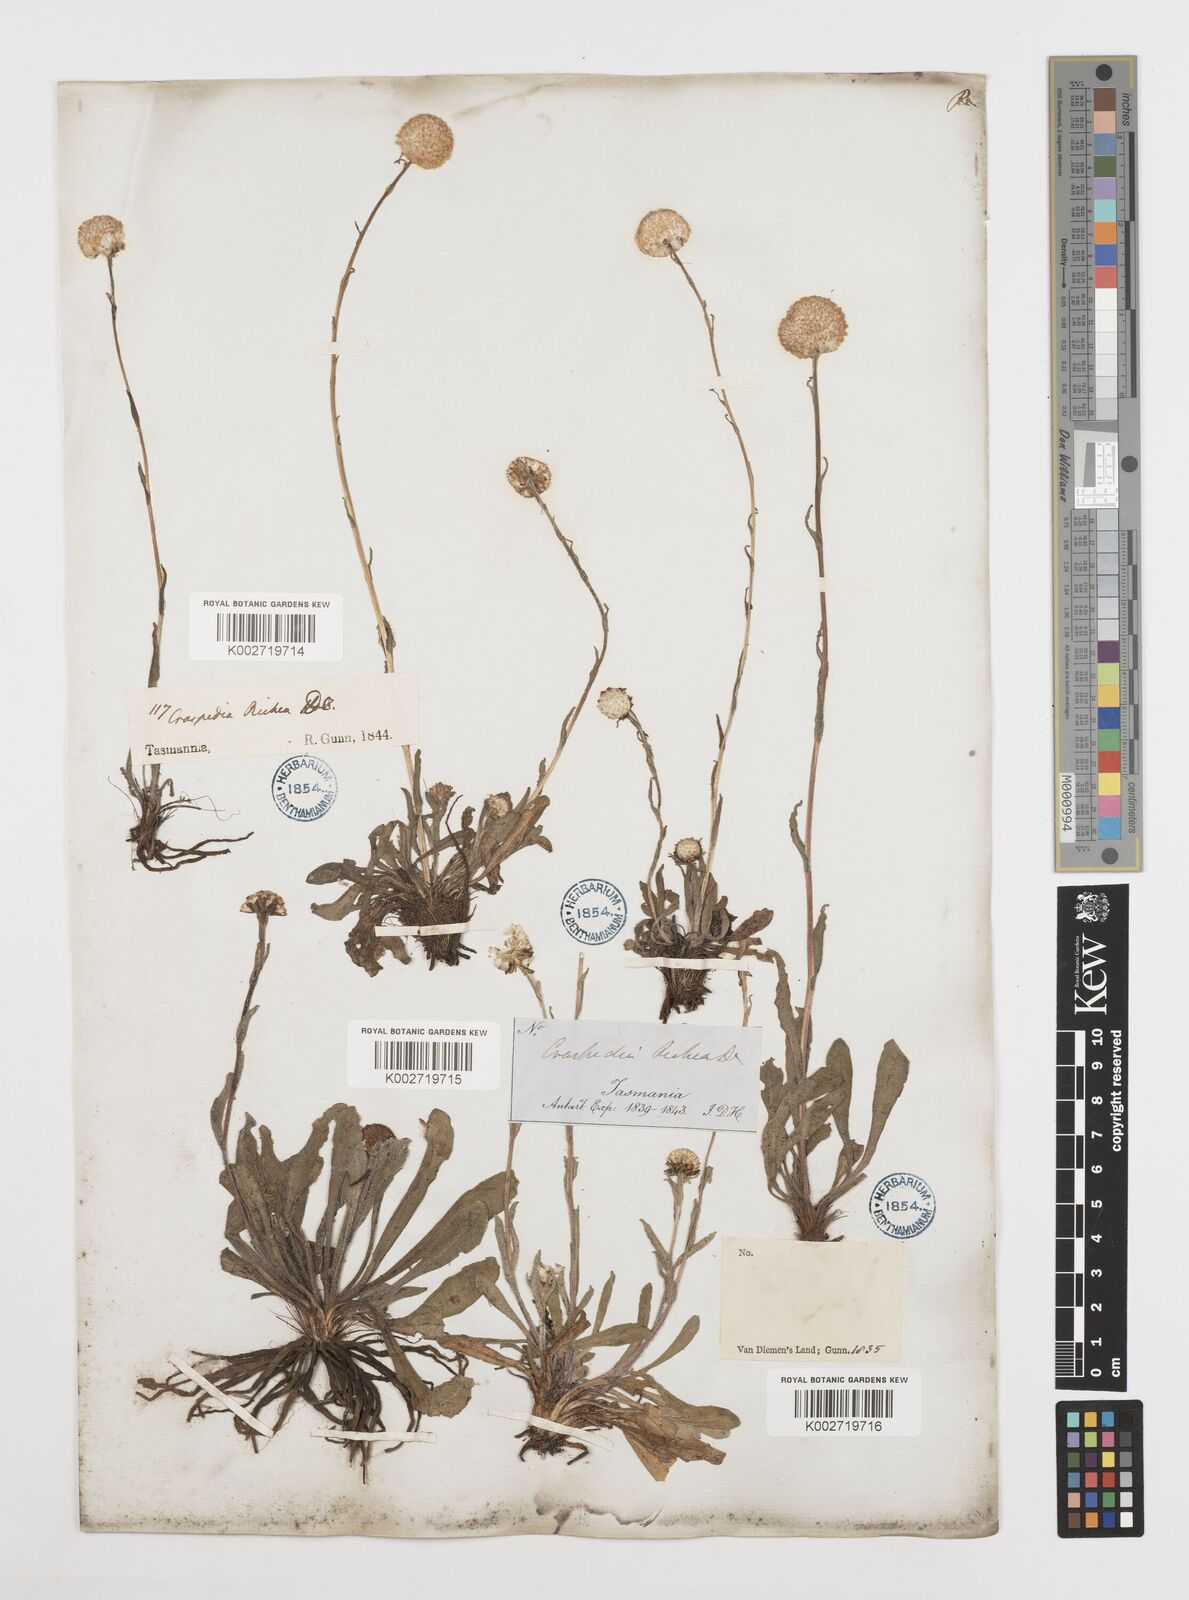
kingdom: Plantae
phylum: Tracheophyta
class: Magnoliopsida
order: Asterales
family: Asteraceae
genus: Craspedia
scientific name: Craspedia glauca
